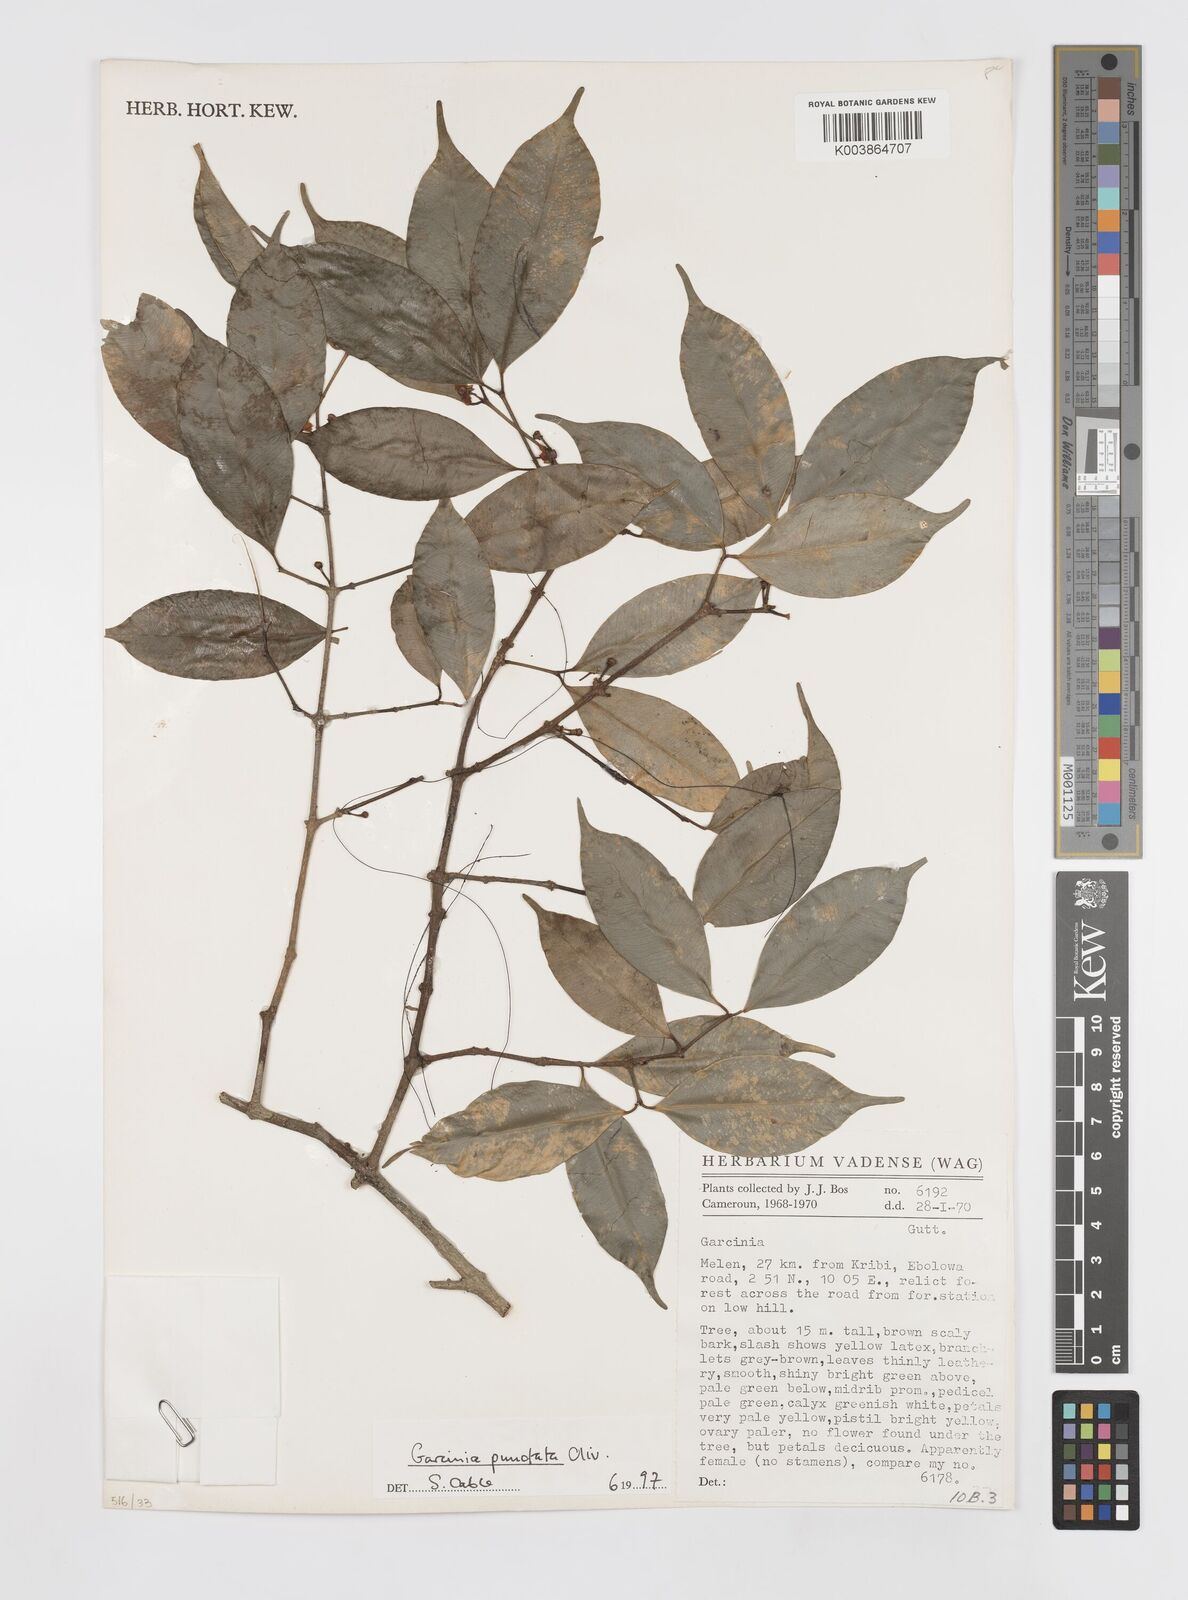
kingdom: Plantae
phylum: Tracheophyta
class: Magnoliopsida
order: Malpighiales
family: Clusiaceae
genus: Garcinia
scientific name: Garcinia punctata
